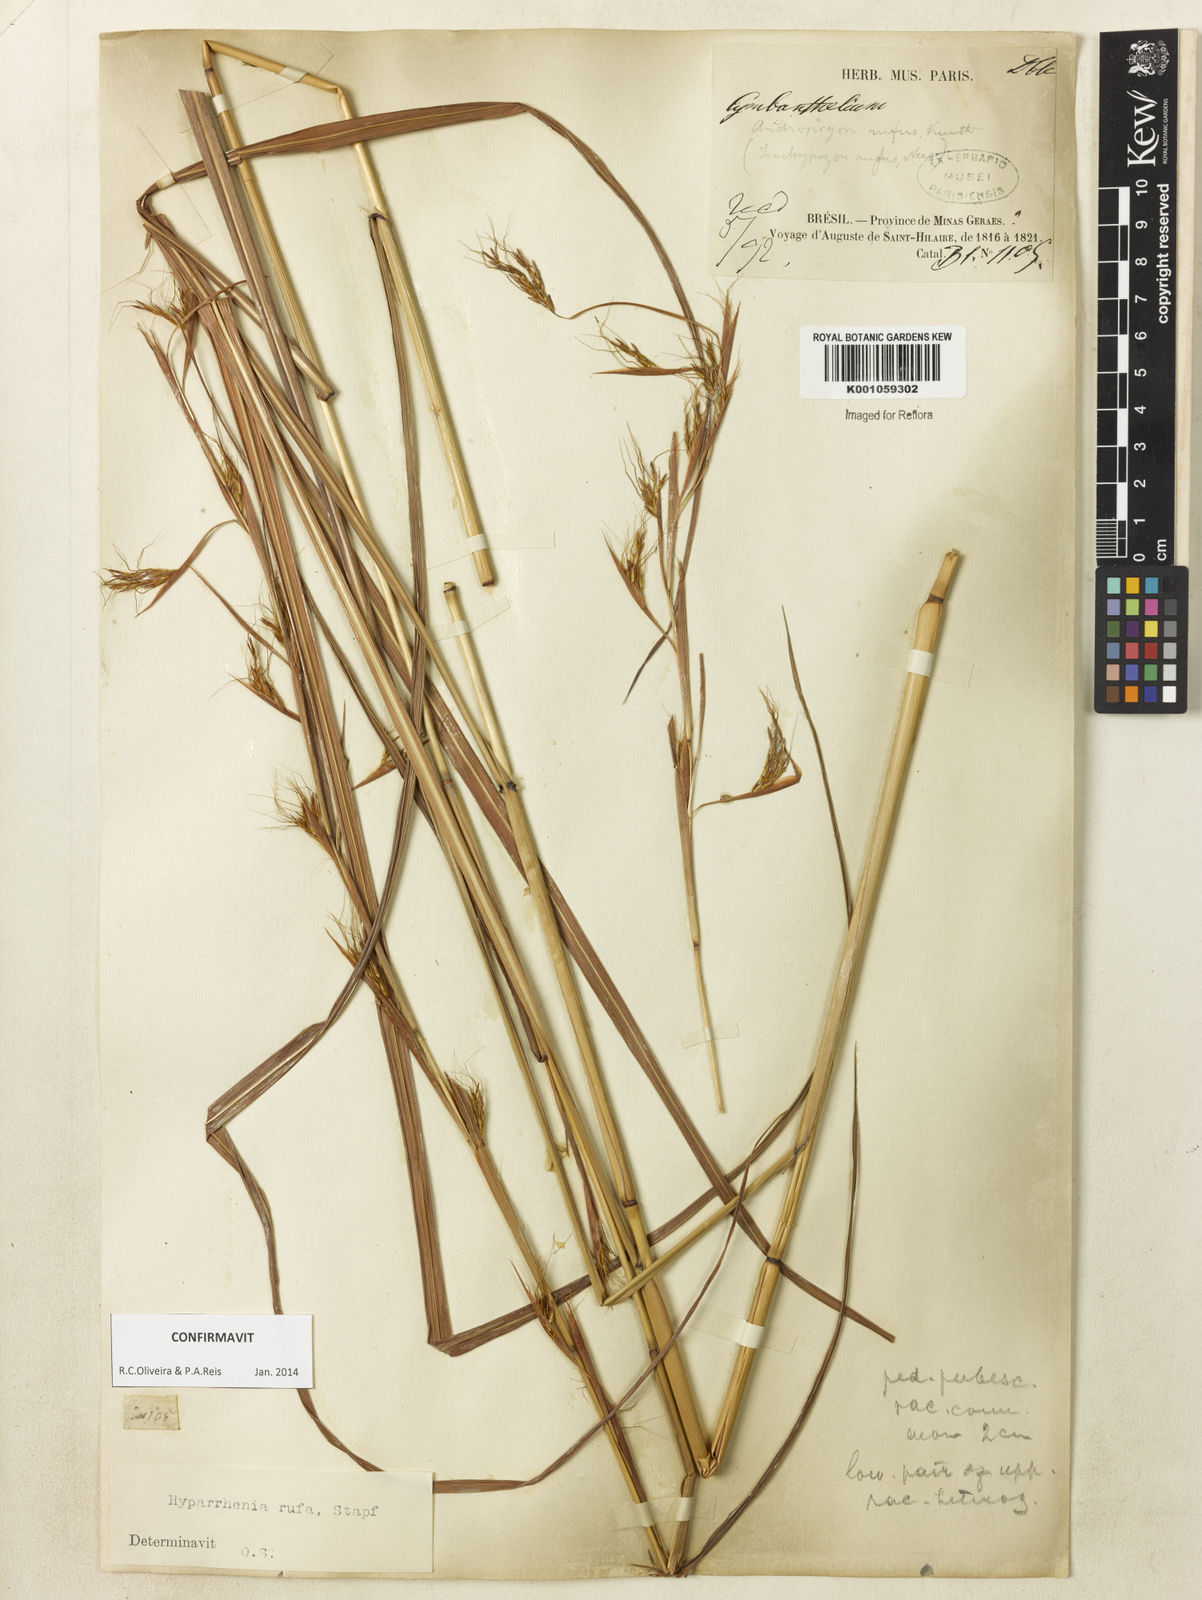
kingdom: Plantae
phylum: Tracheophyta
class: Liliopsida
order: Poales
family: Poaceae
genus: Hyparrhenia
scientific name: Hyparrhenia rufa
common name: Jaraguagrass
